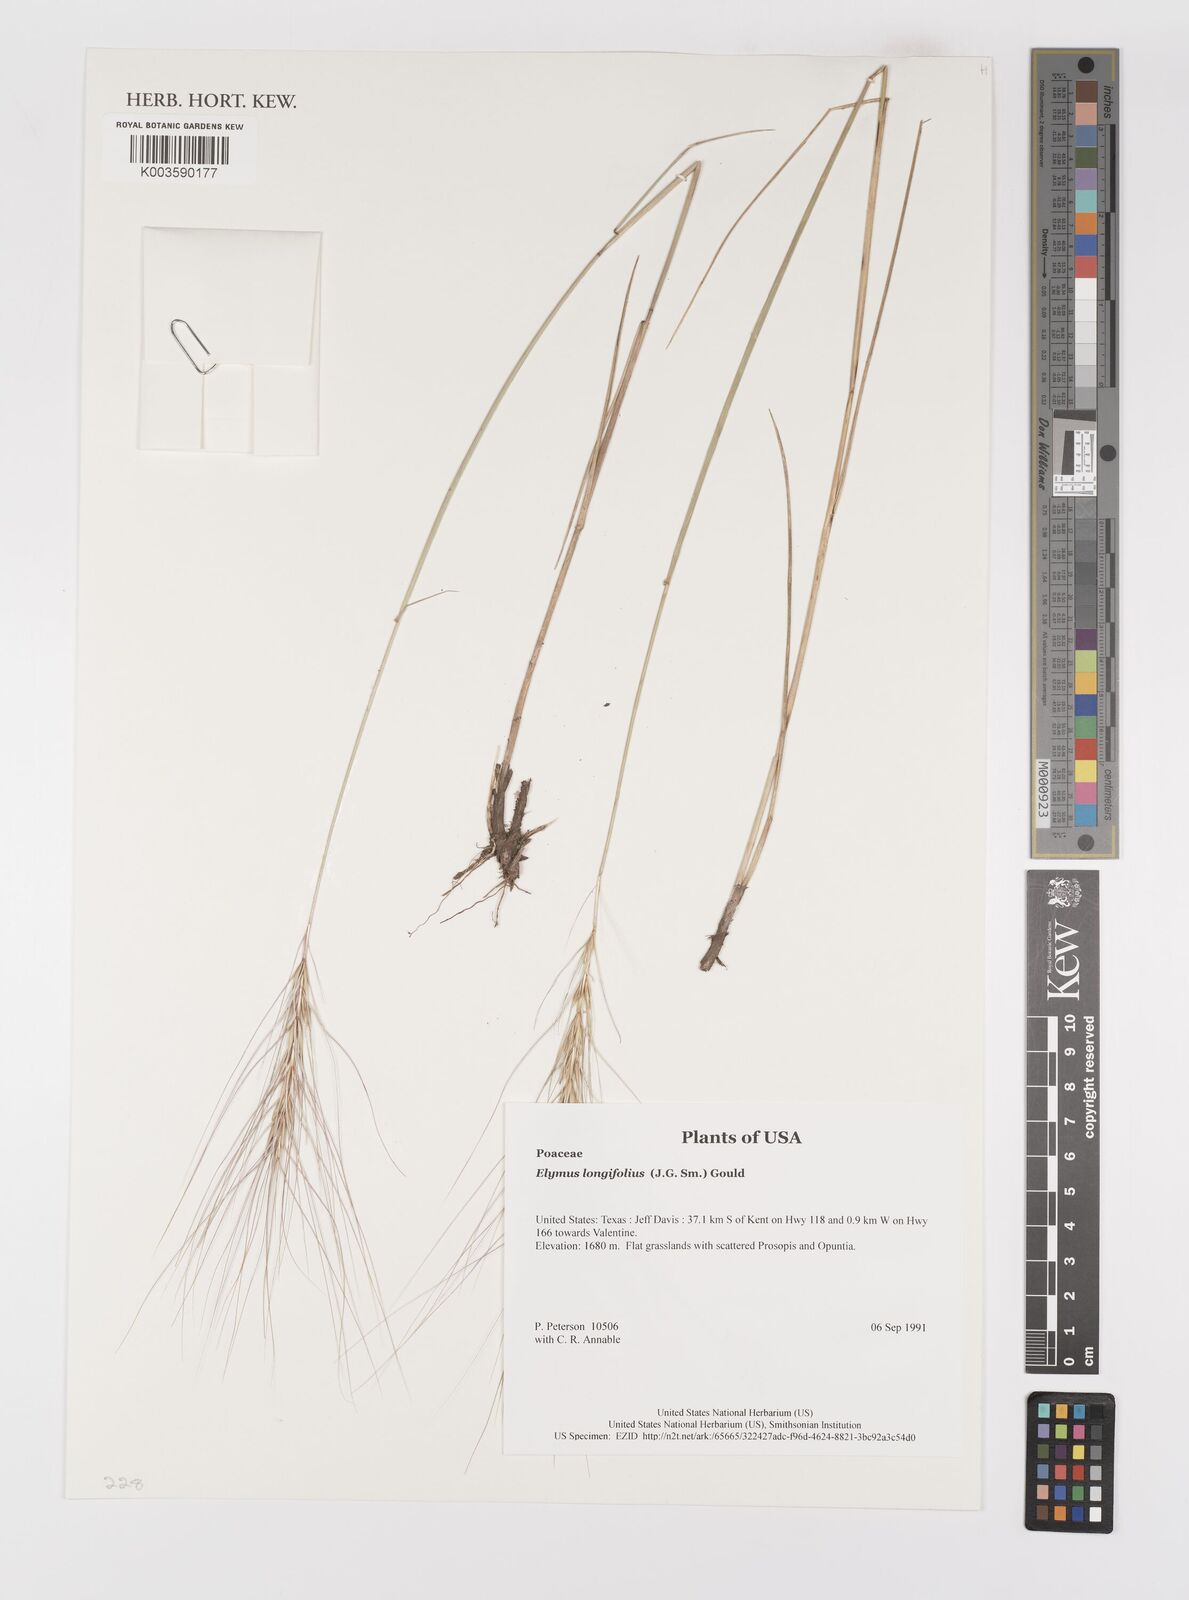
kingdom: Plantae
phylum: Tracheophyta
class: Liliopsida
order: Poales
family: Poaceae
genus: Elymus
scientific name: Elymus longifolius
